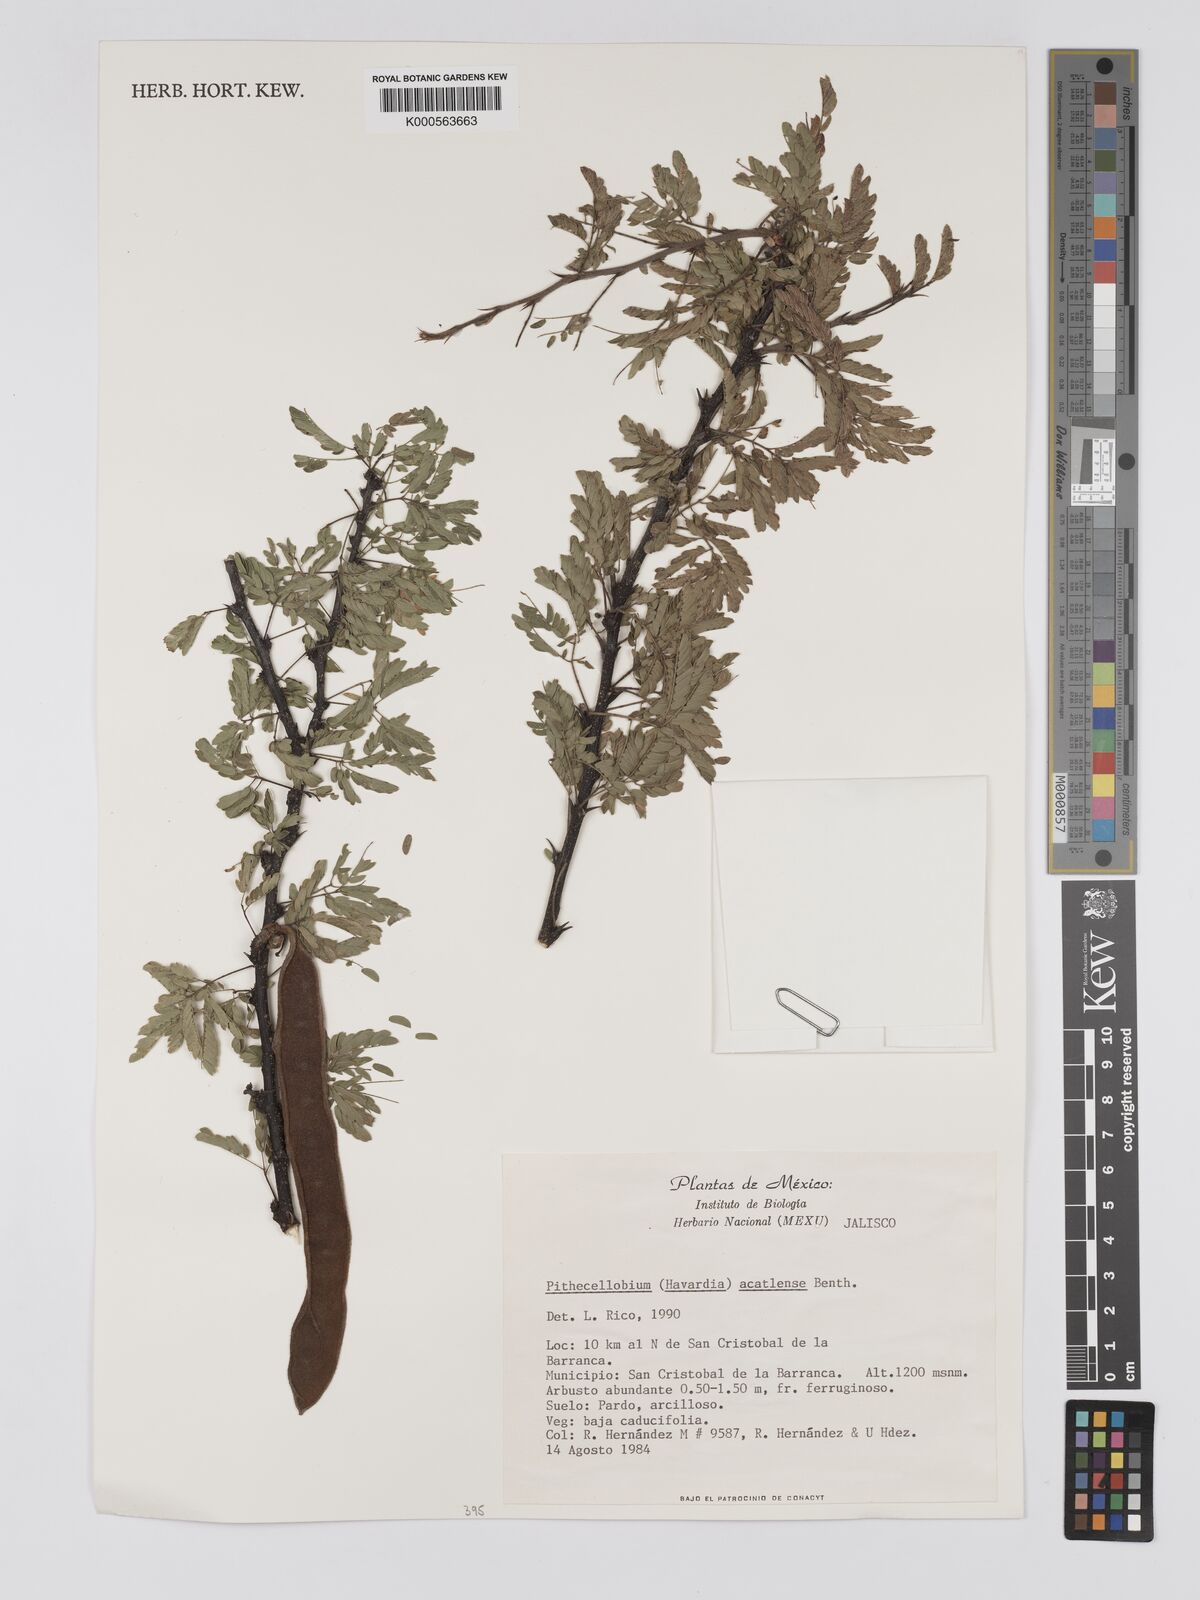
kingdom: Plantae
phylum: Tracheophyta
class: Magnoliopsida
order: Fabales
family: Fabaceae
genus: Havardia
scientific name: Havardia acatlensis
